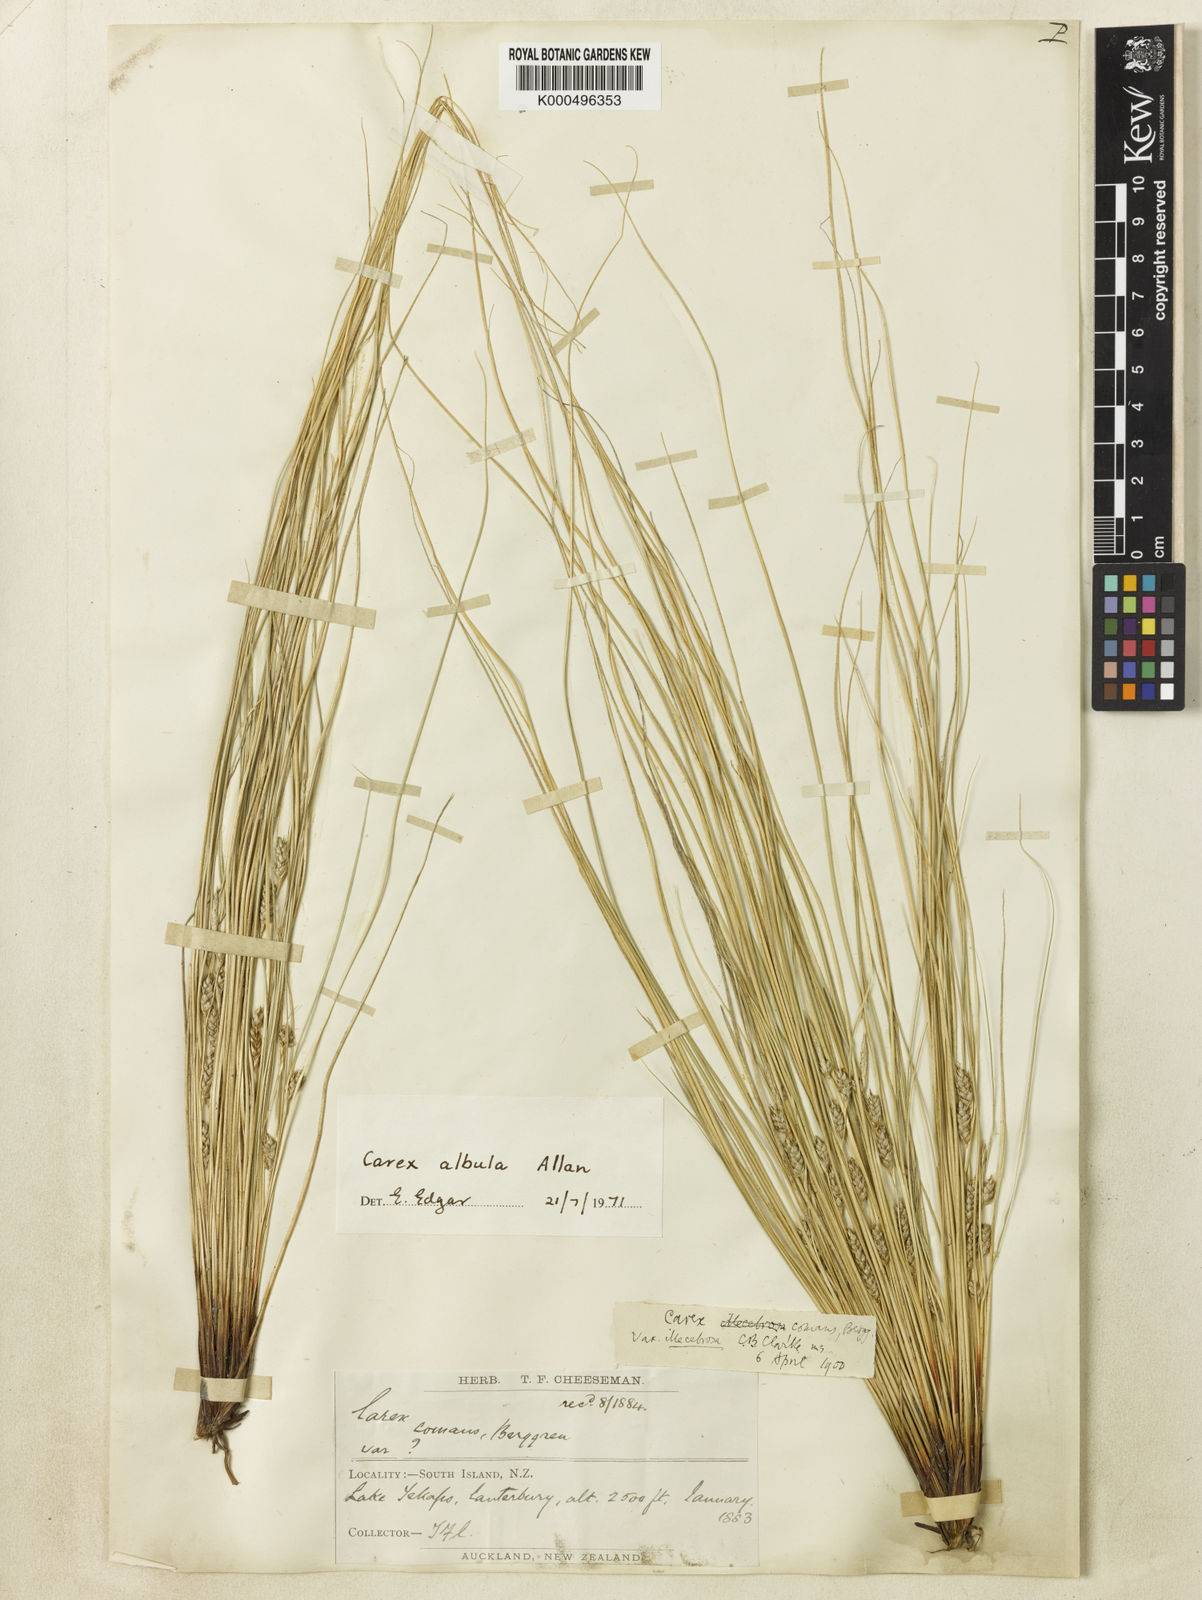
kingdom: Plantae
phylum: Tracheophyta
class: Liliopsida
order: Poales
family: Cyperaceae
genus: Carex
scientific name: Carex albula
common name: Blonde sedge
